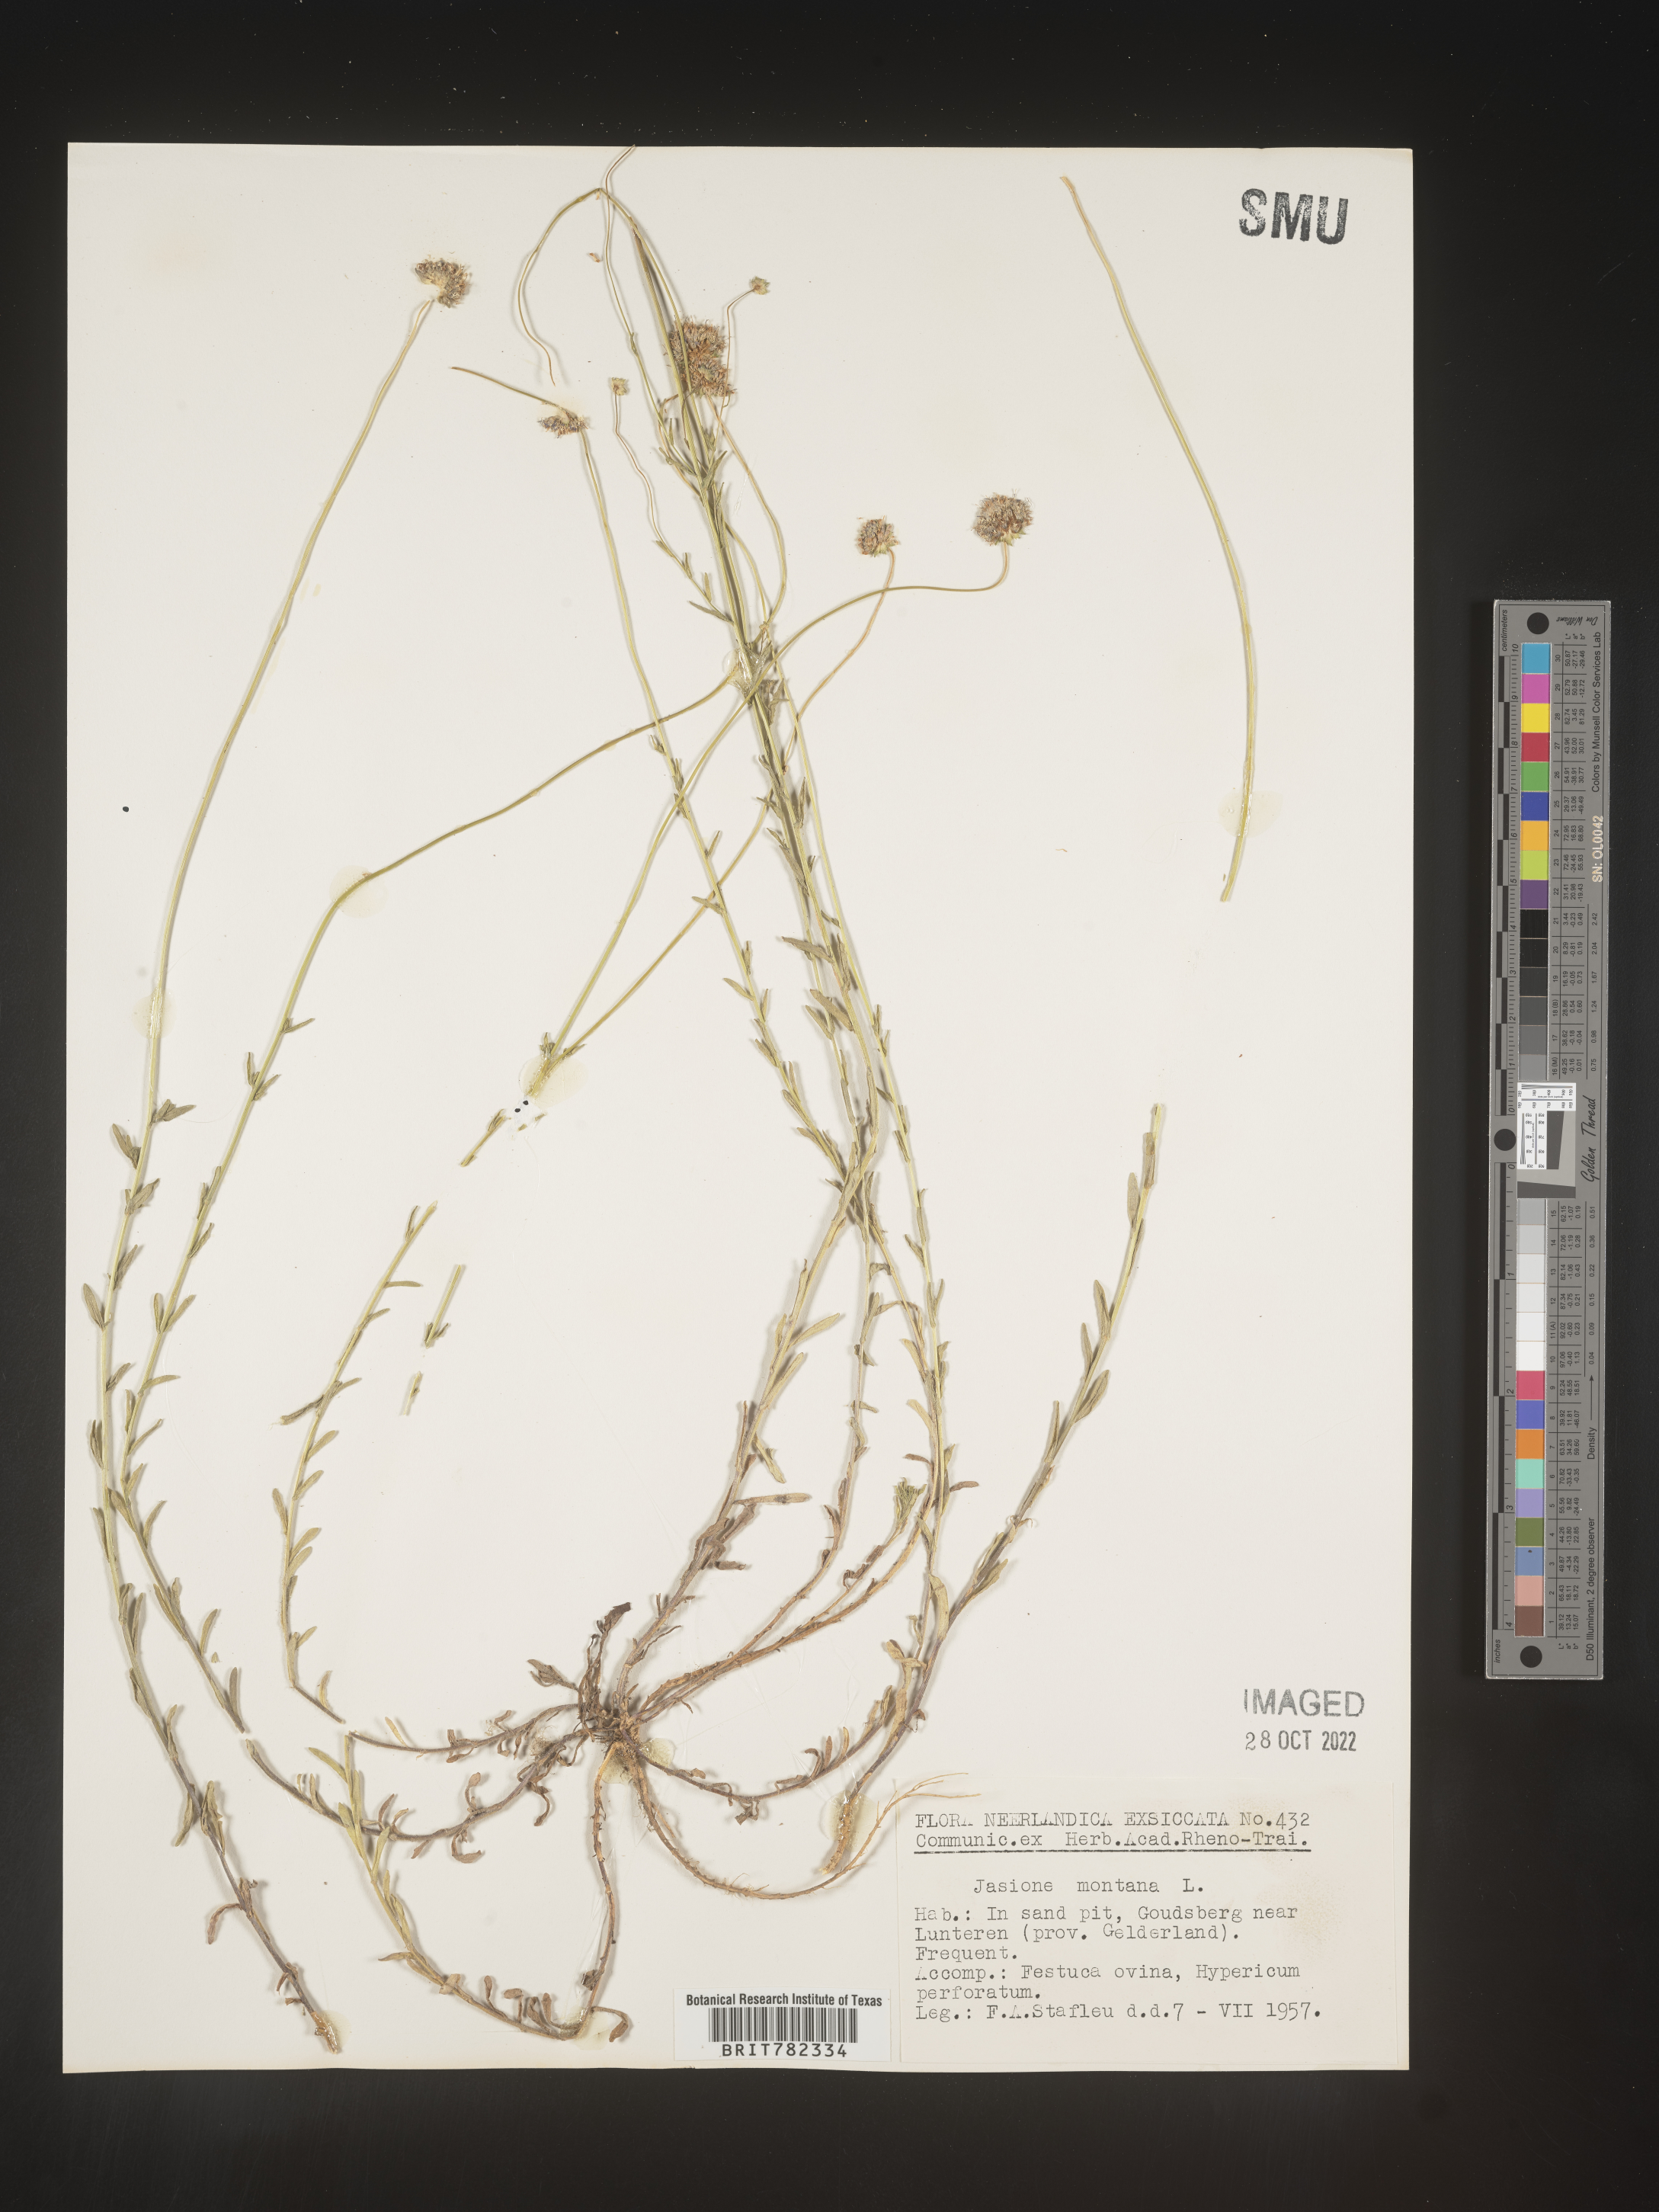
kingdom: Plantae
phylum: Tracheophyta
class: Magnoliopsida
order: Asterales
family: Campanulaceae
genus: Jasione
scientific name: Jasione
